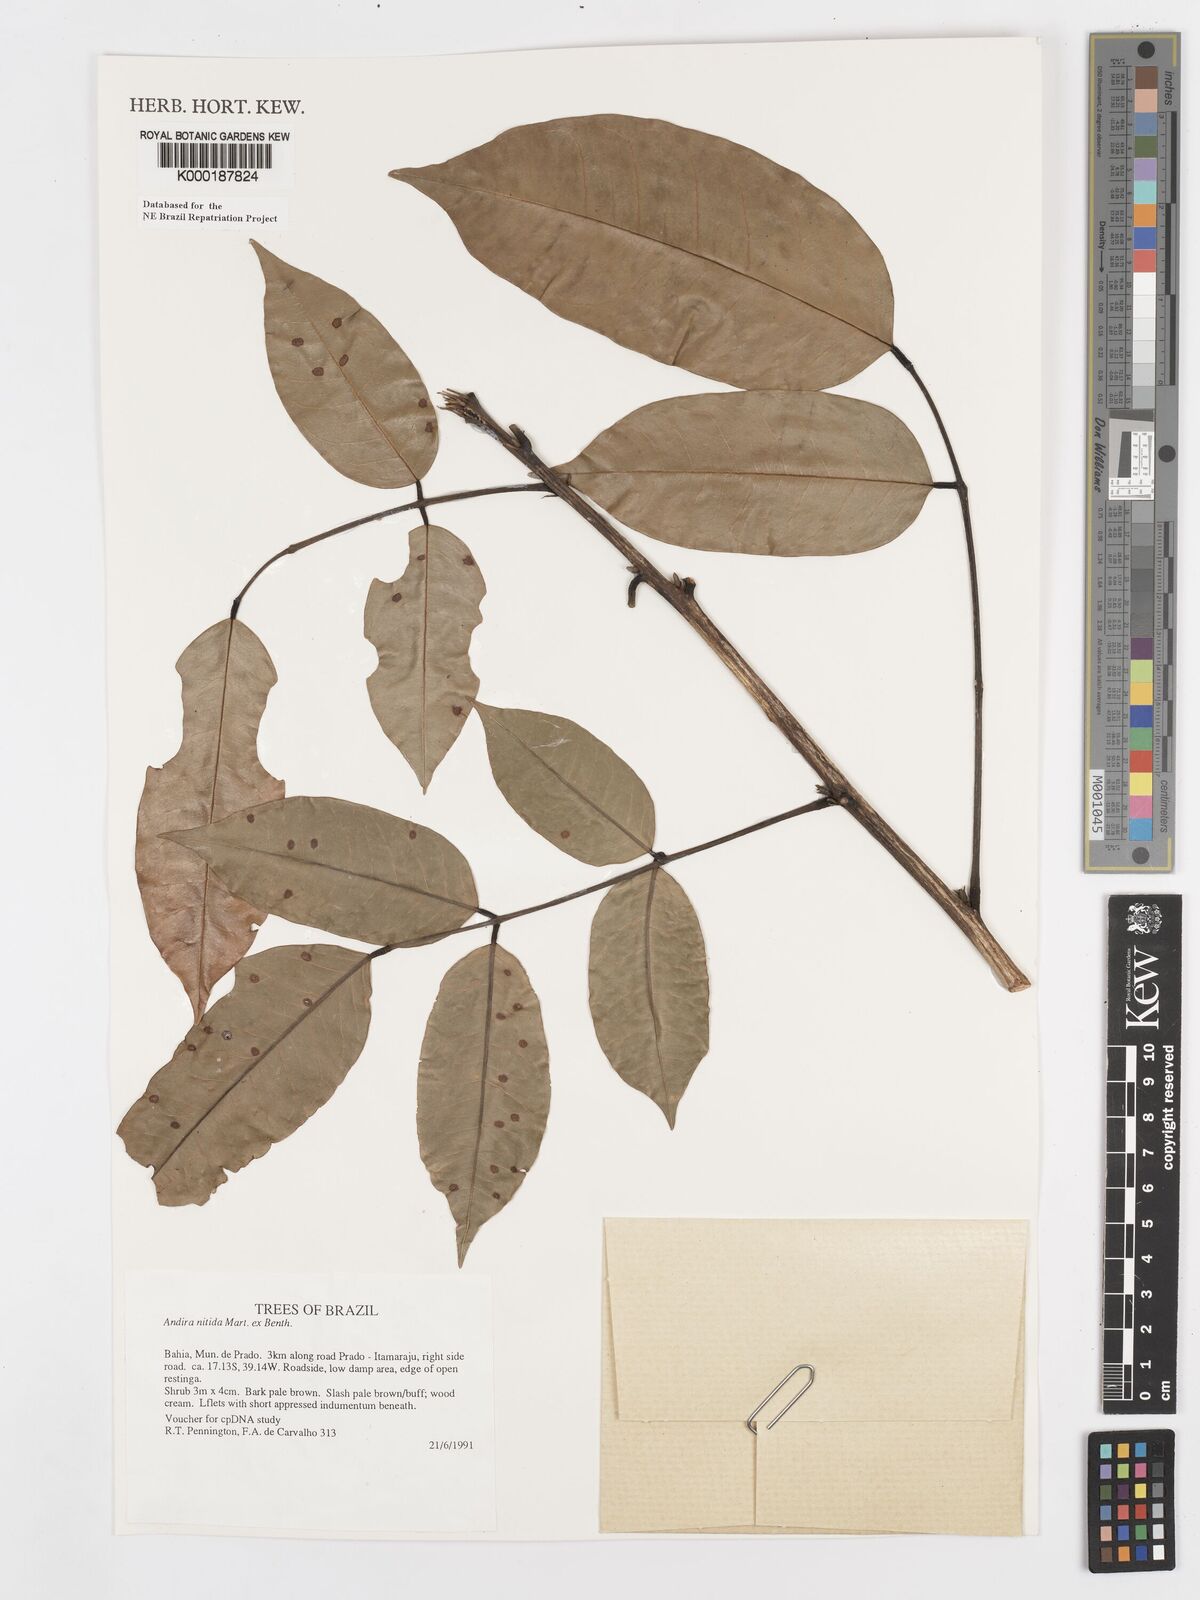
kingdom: Plantae
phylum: Tracheophyta
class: Magnoliopsida
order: Fabales
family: Fabaceae
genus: Andira
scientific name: Andira nitida
